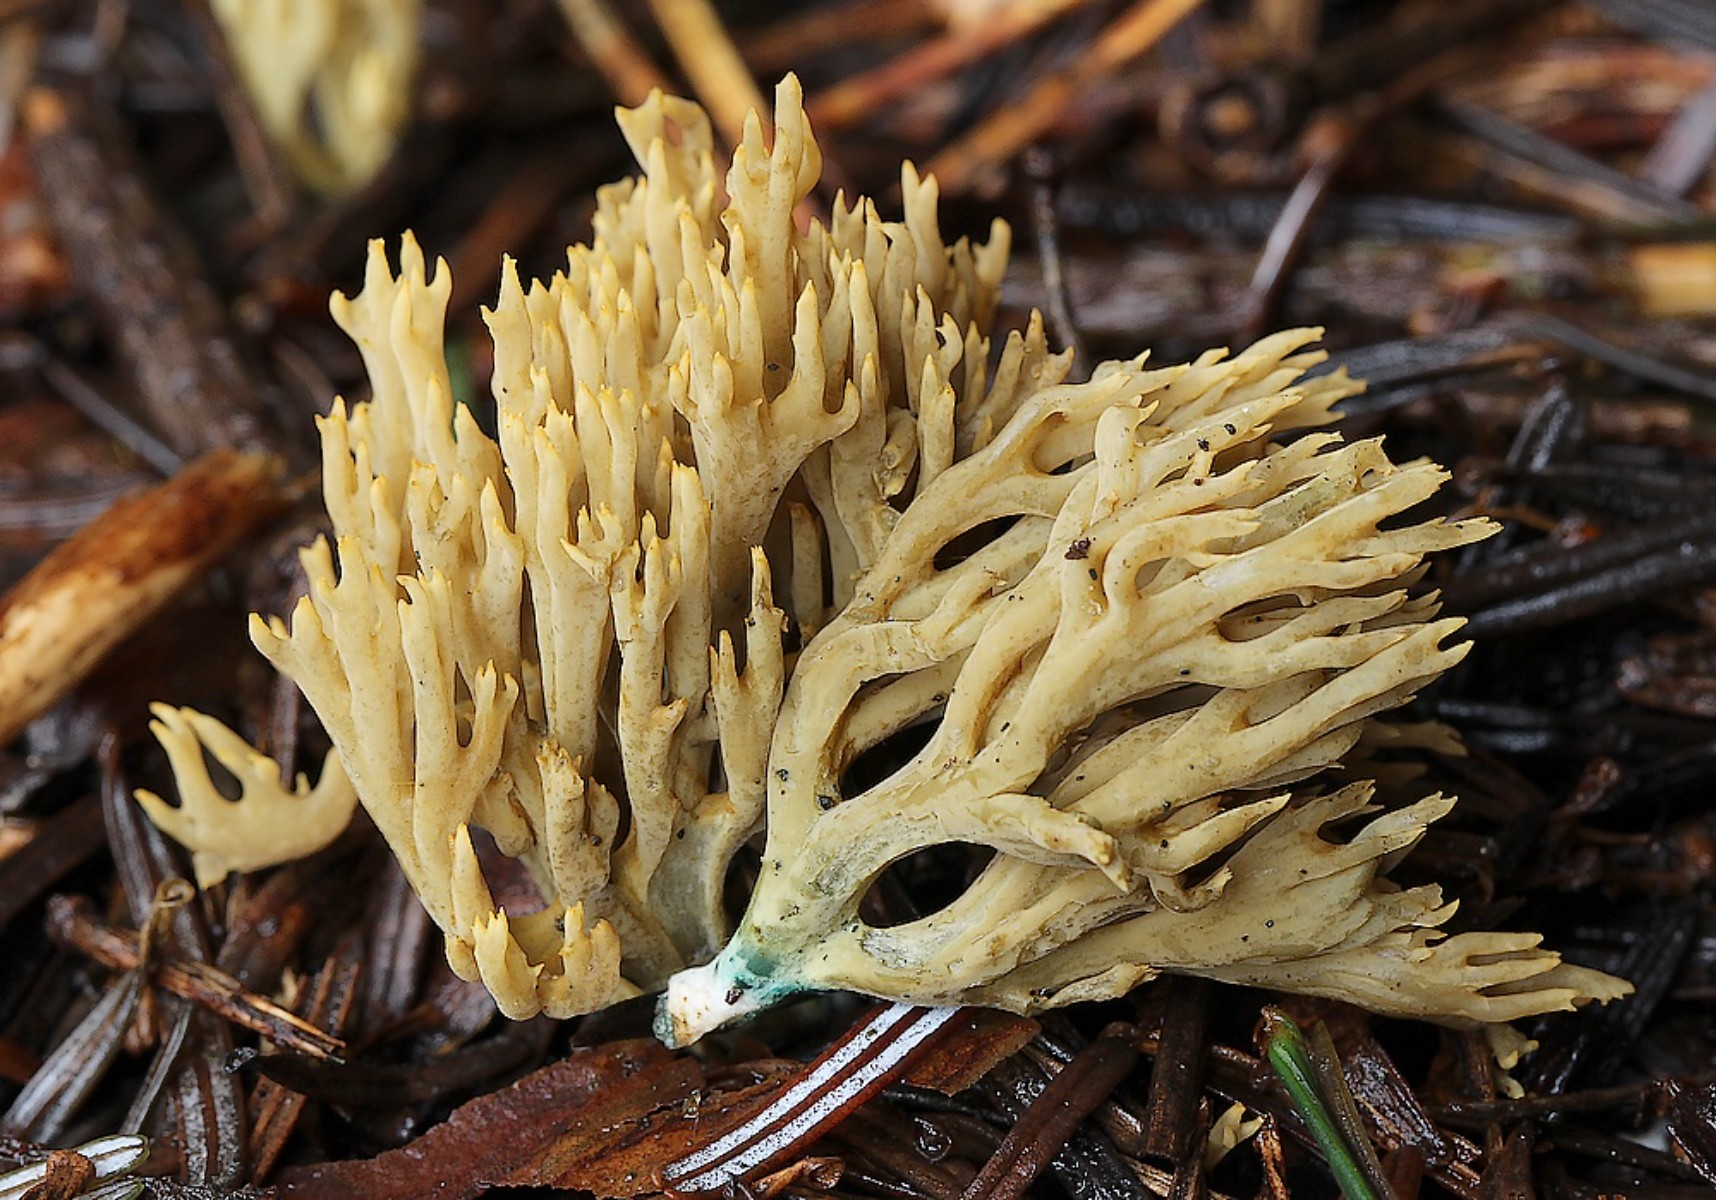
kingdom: Fungi
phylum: Basidiomycota
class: Agaricomycetes
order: Gomphales
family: Gomphaceae
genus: Phaeoclavulina
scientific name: Phaeoclavulina abietina
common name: gulgrøn koralsvamp
